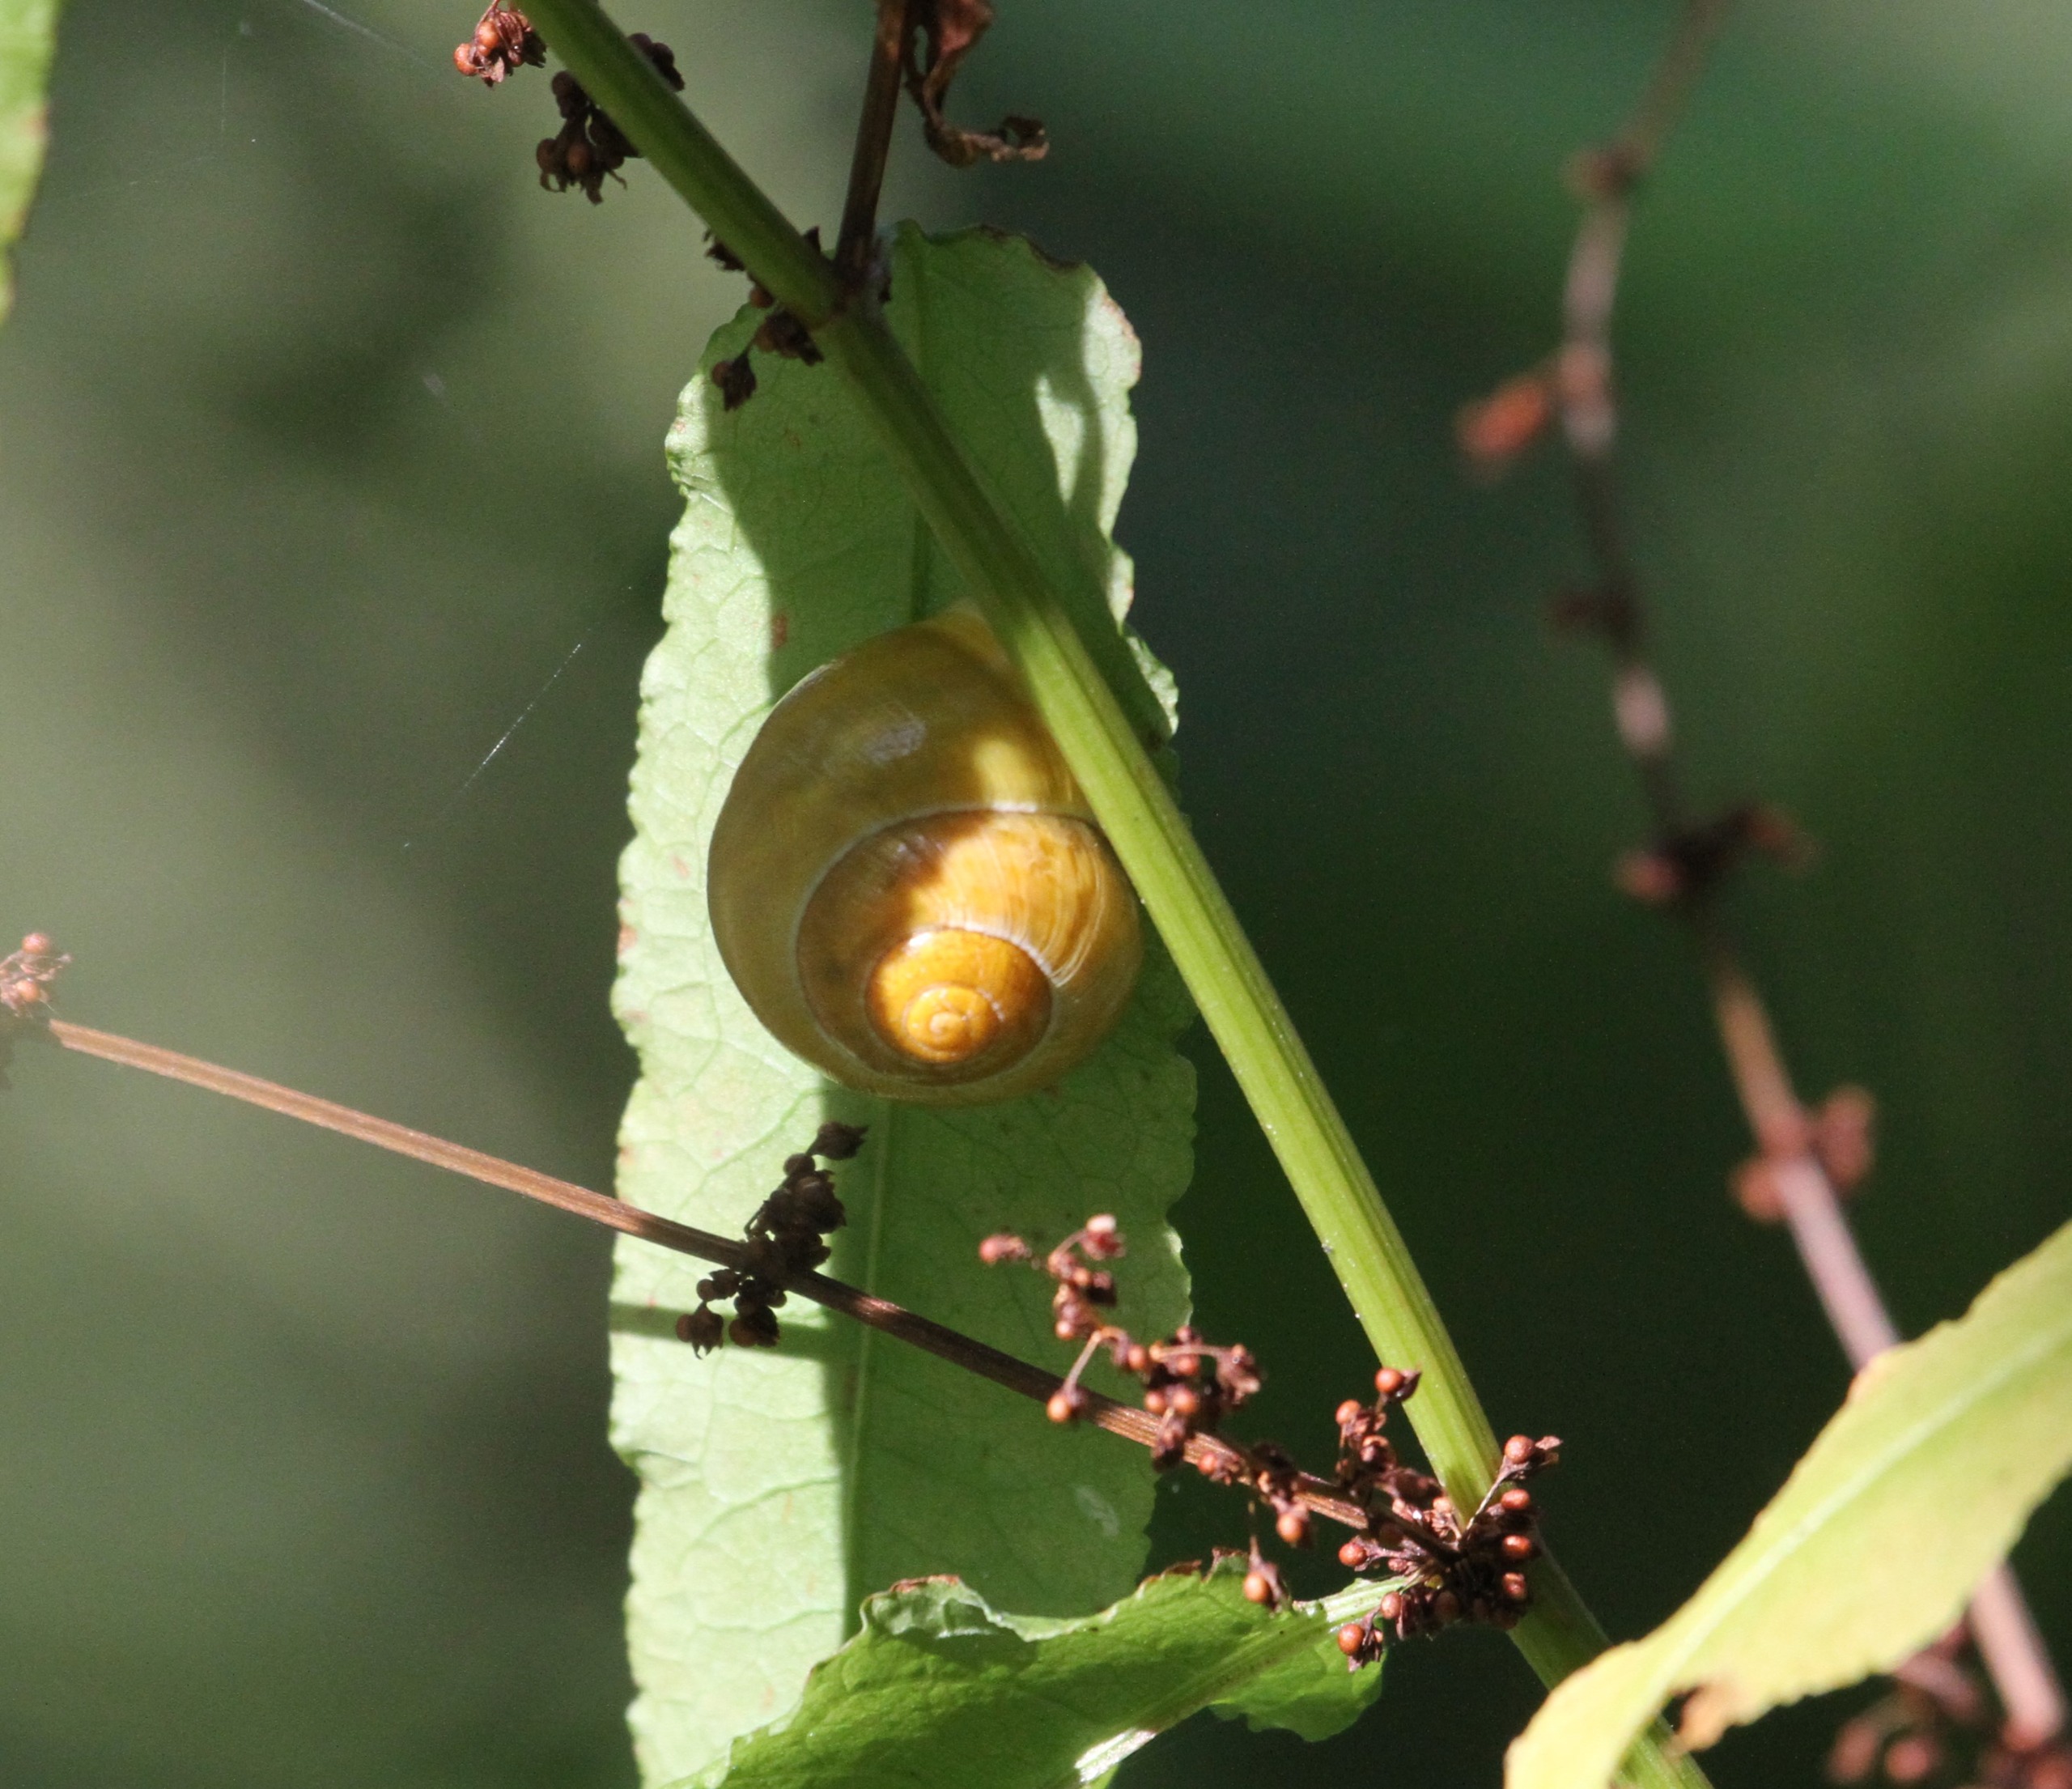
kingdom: Animalia
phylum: Mollusca
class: Gastropoda
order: Stylommatophora
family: Helicidae
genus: Cepaea
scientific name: Cepaea hortensis
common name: Havesnegl
